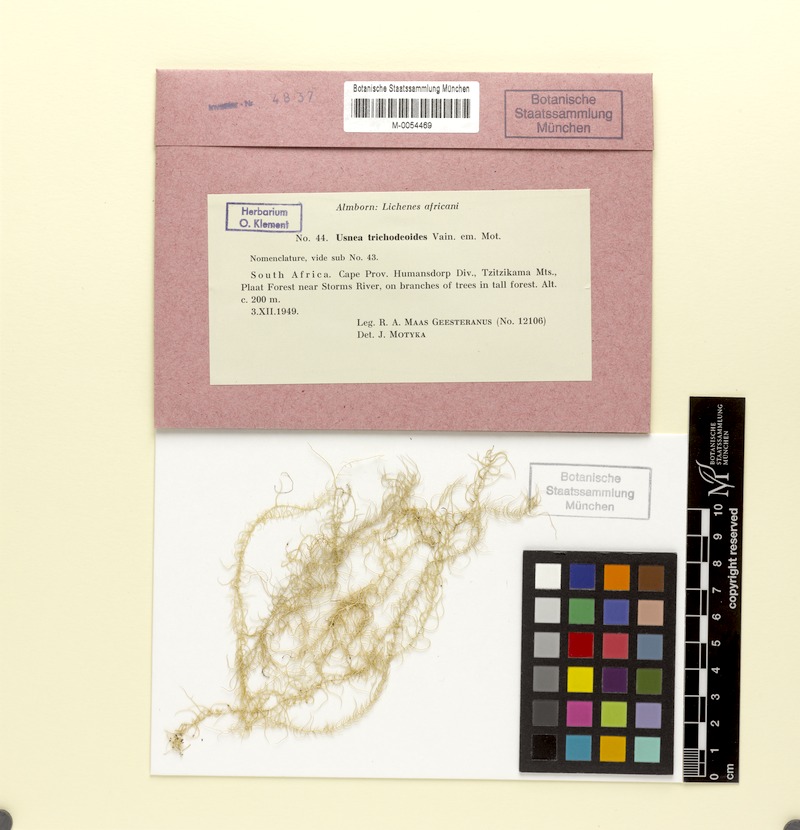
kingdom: Fungi
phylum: Ascomycota
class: Lecanoromycetes
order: Lecanorales
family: Parmeliaceae
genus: Dolichousnea
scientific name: Dolichousnea trichodeoides
